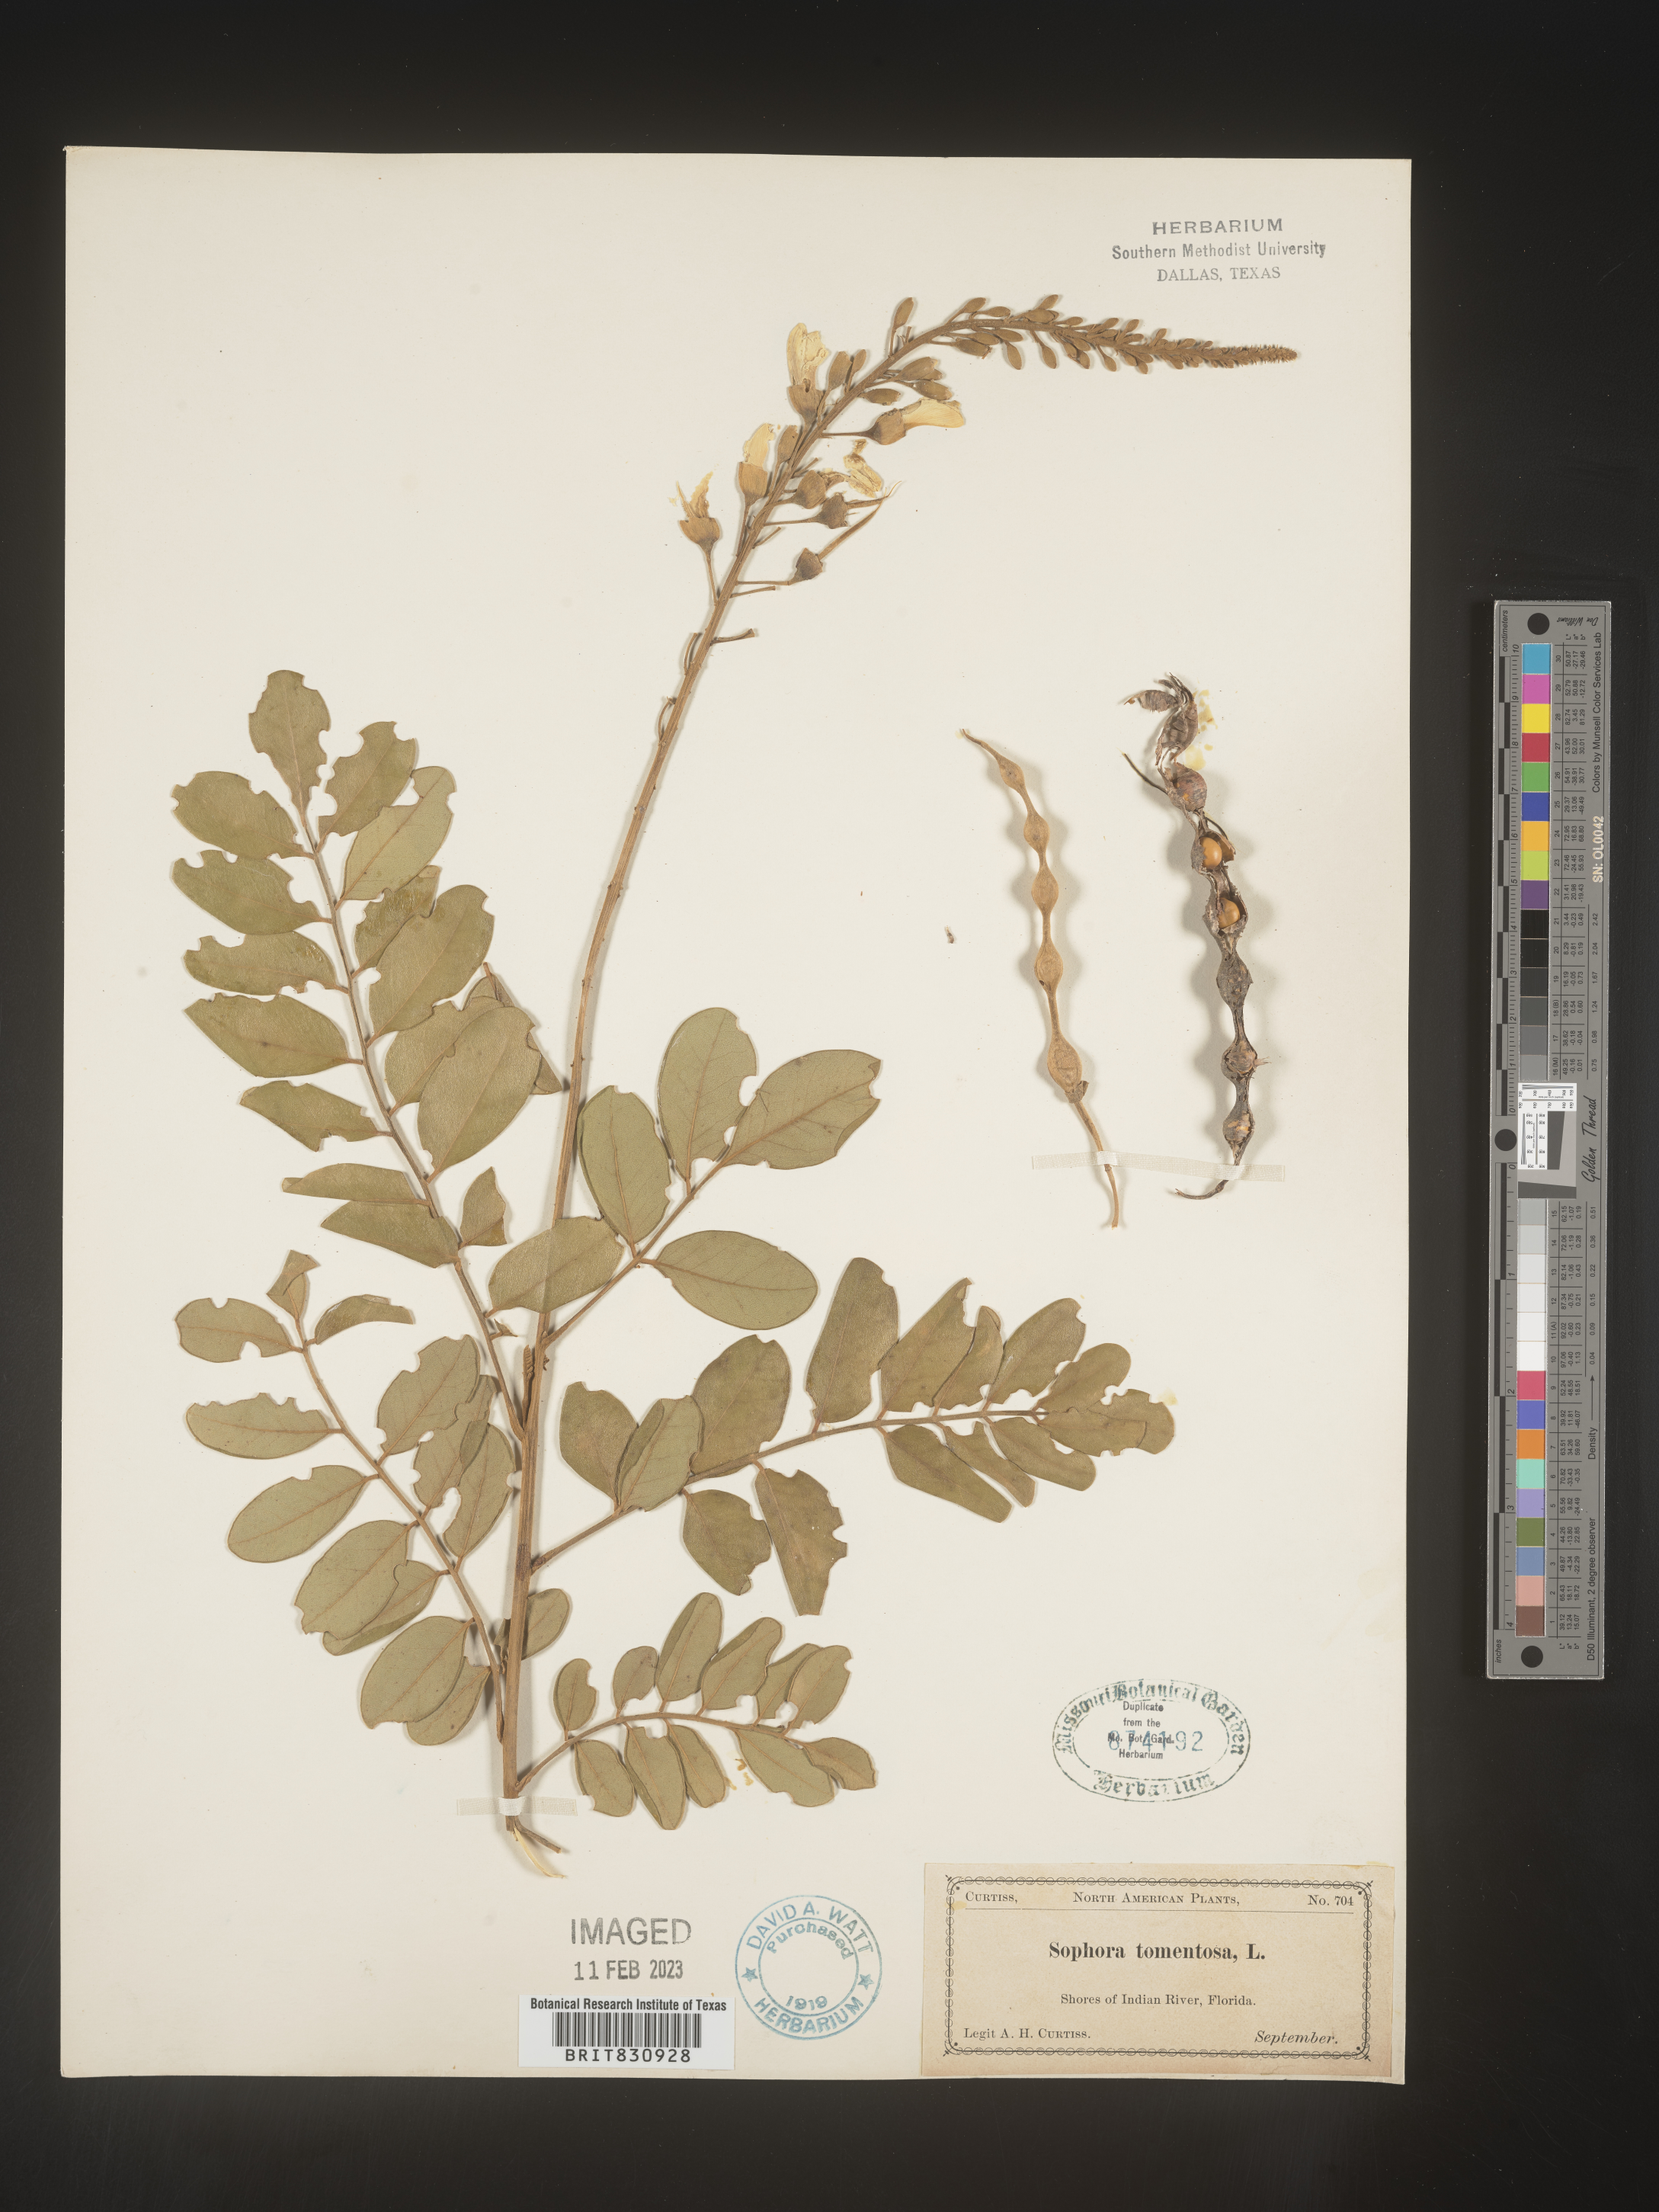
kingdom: Plantae
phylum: Tracheophyta
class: Magnoliopsida
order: Fabales
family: Fabaceae
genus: Sophora
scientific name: Sophora
